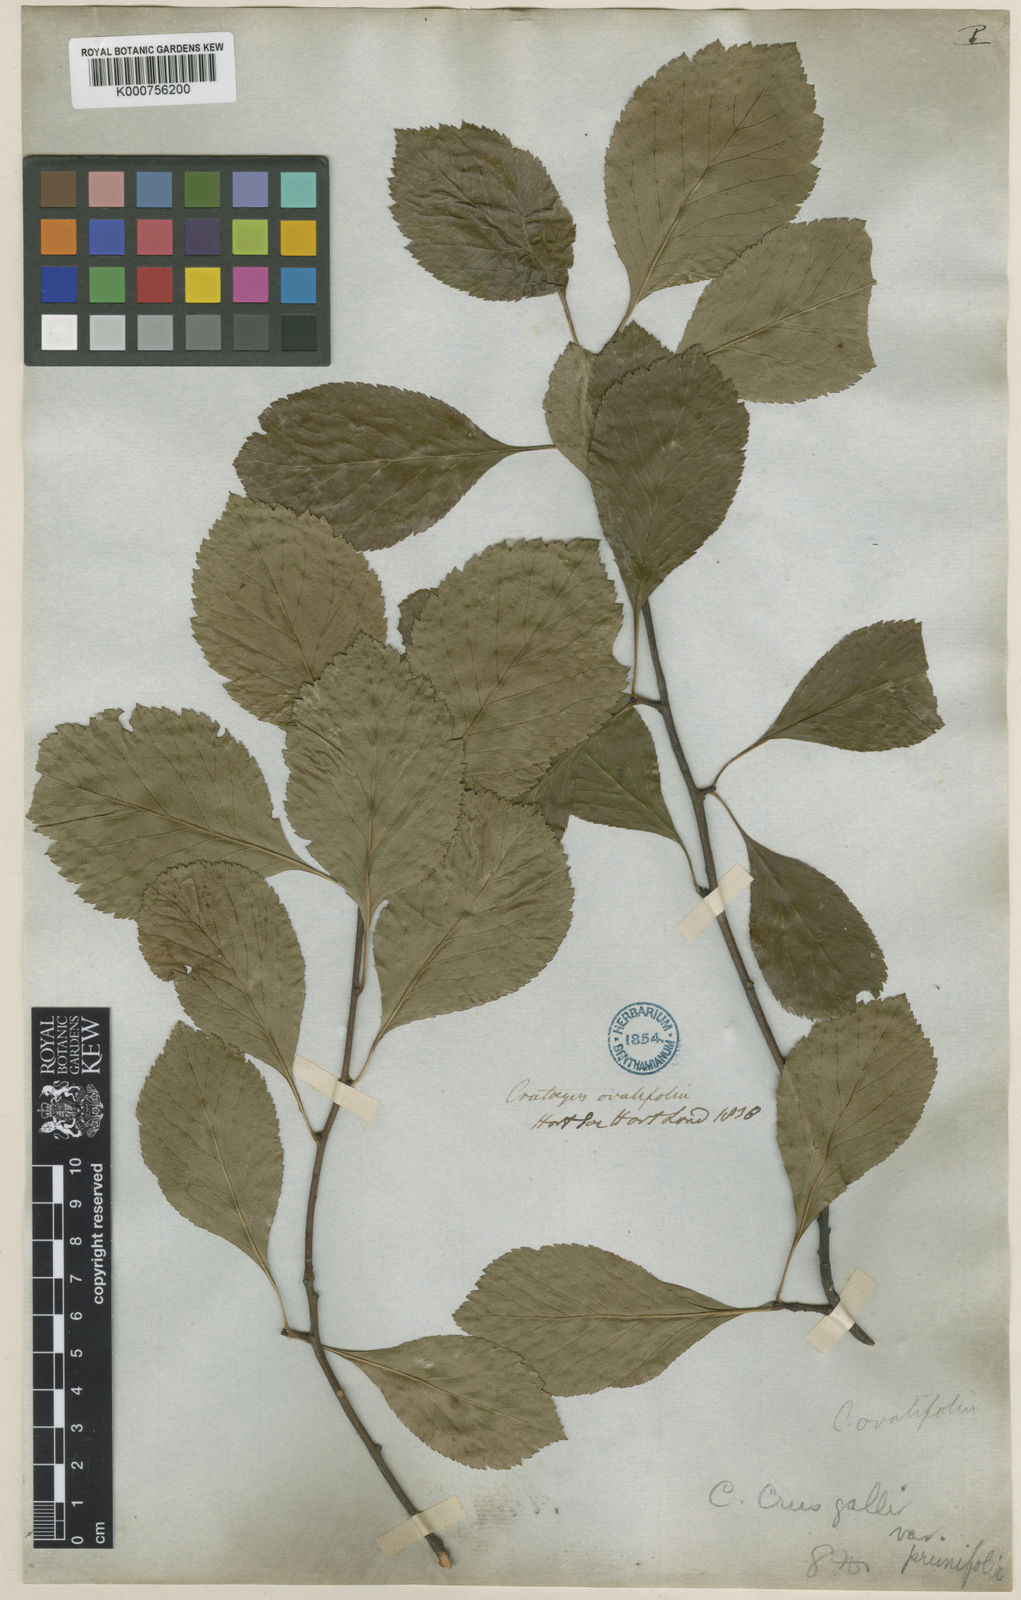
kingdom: Plantae
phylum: Tracheophyta
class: Magnoliopsida
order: Rosales
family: Rosaceae
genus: Crataegus
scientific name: Crataegus persimilis
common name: Broad-leaved cockspurthorn
